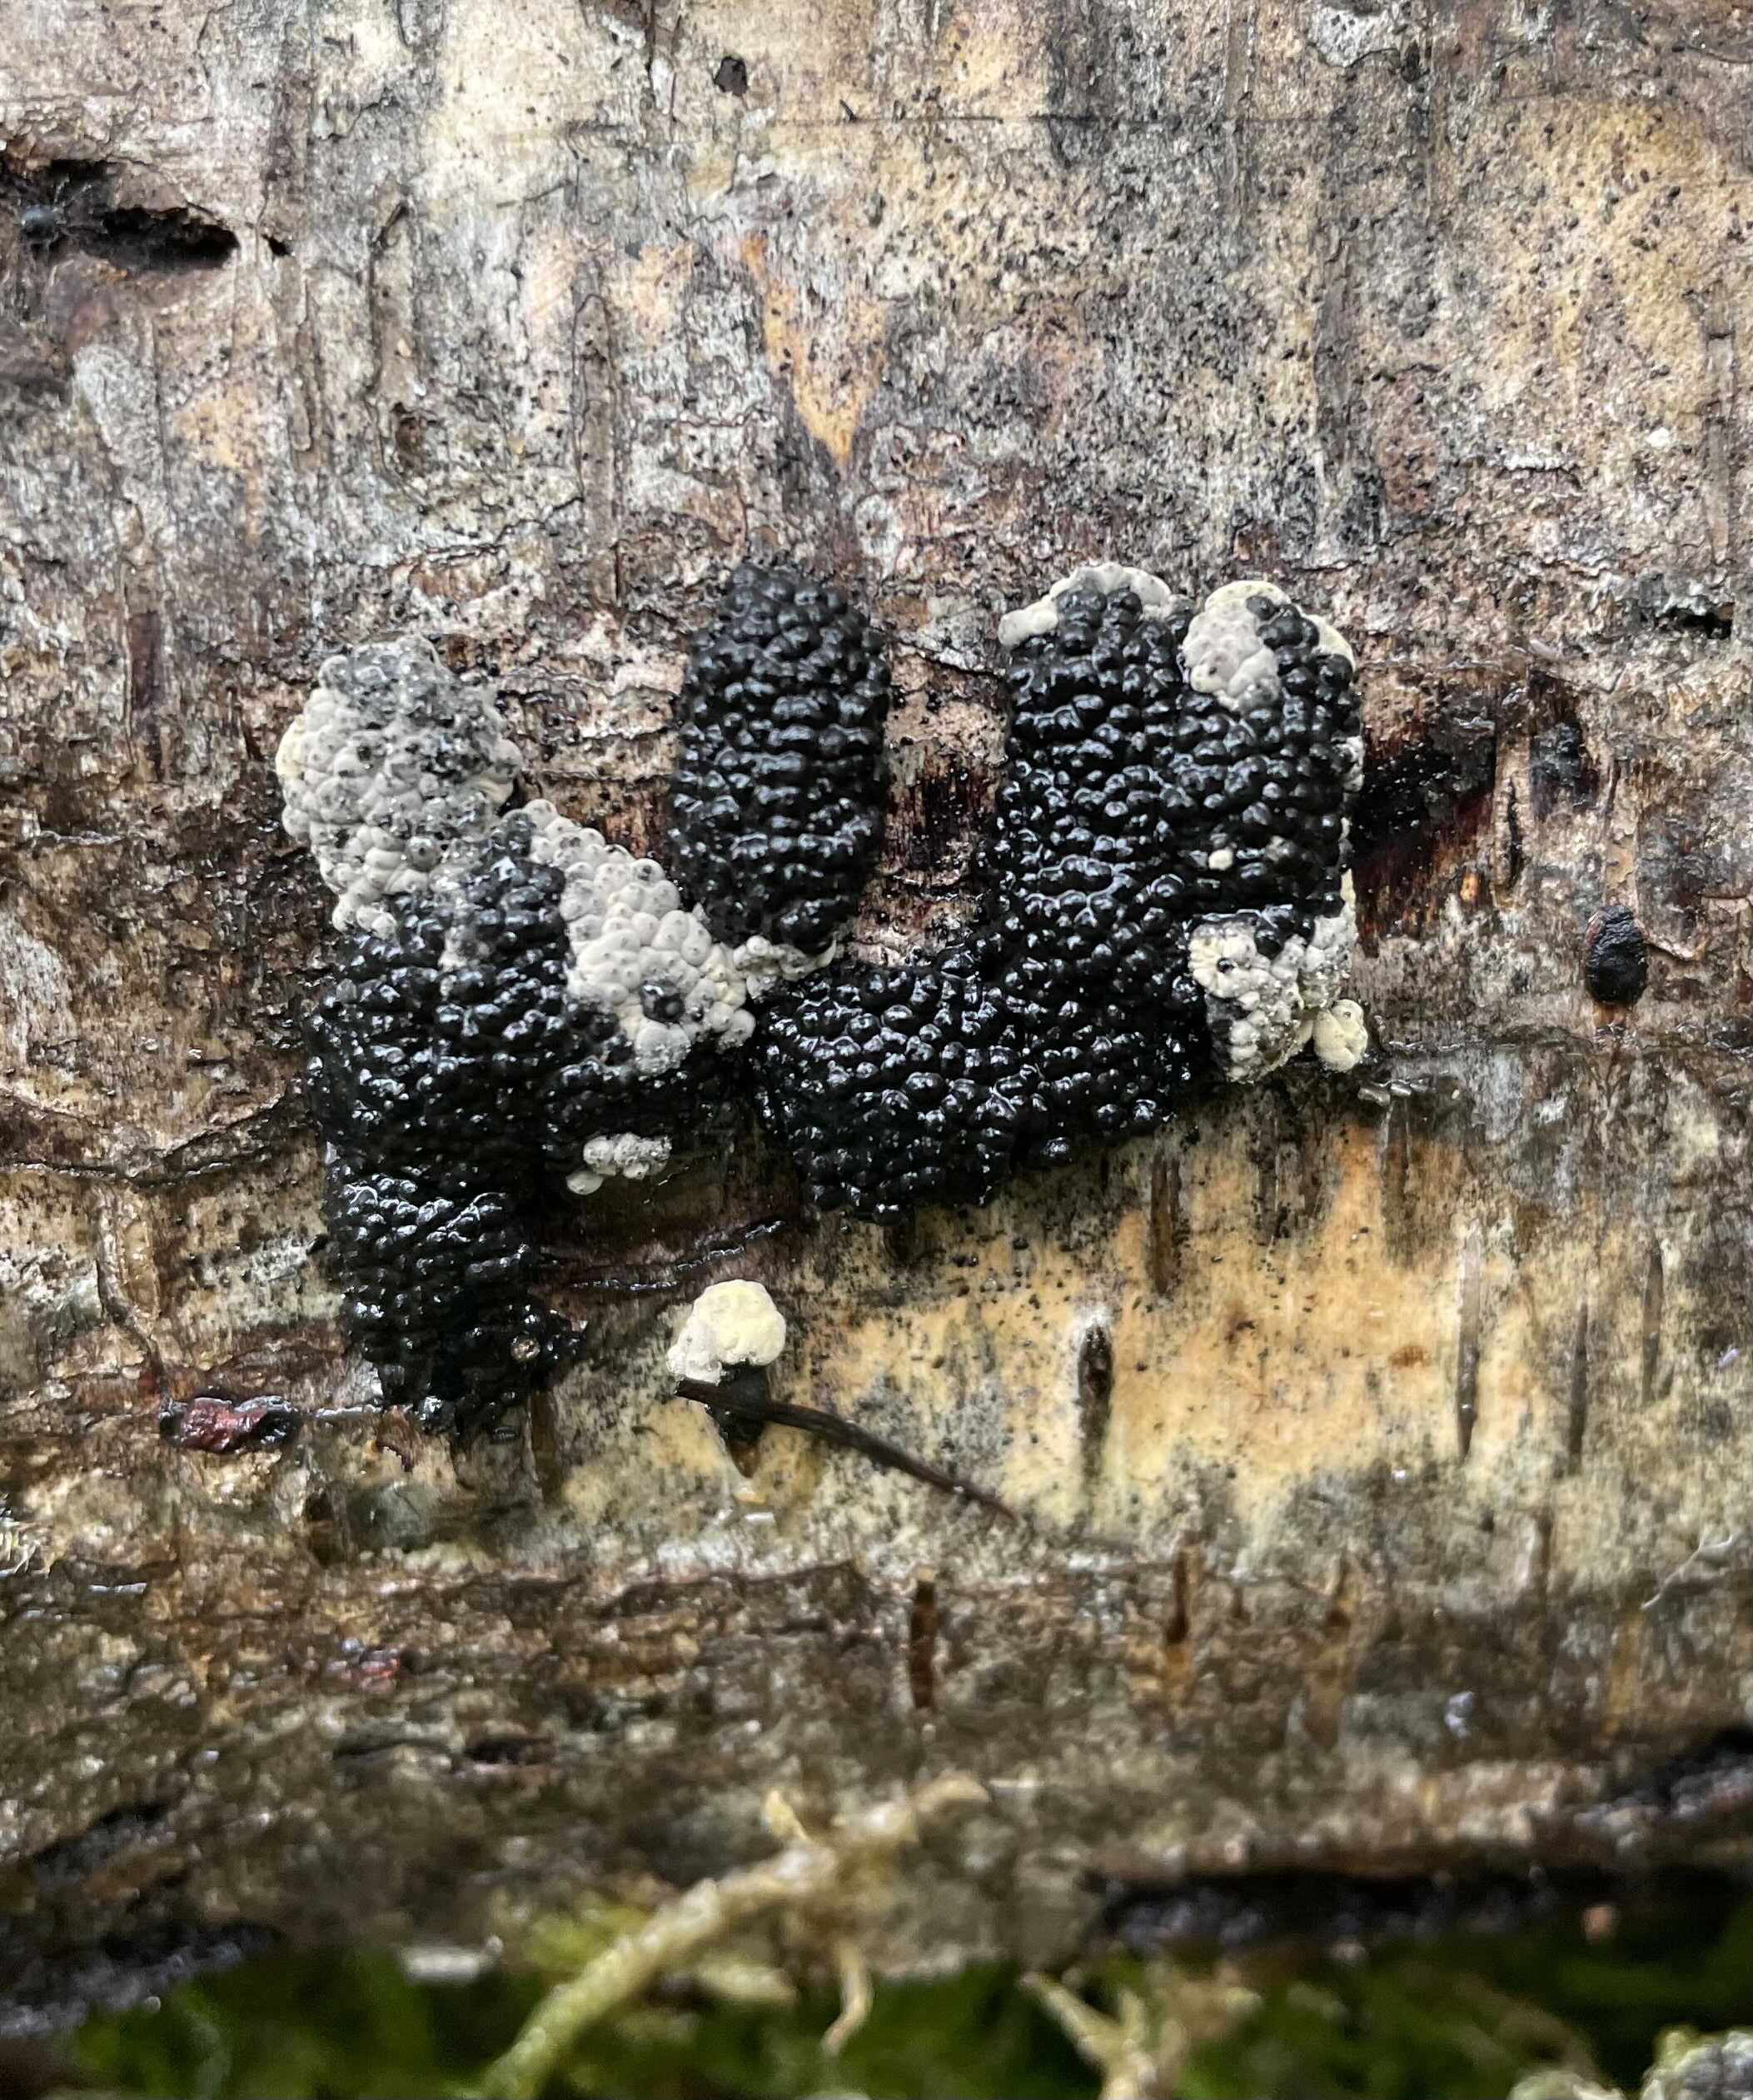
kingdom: Fungi
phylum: Ascomycota
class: Sordariomycetes
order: Xylariales
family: Hypoxylaceae
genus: Jackrogersella
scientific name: Jackrogersella multiformis
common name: foranderlig kulbær
